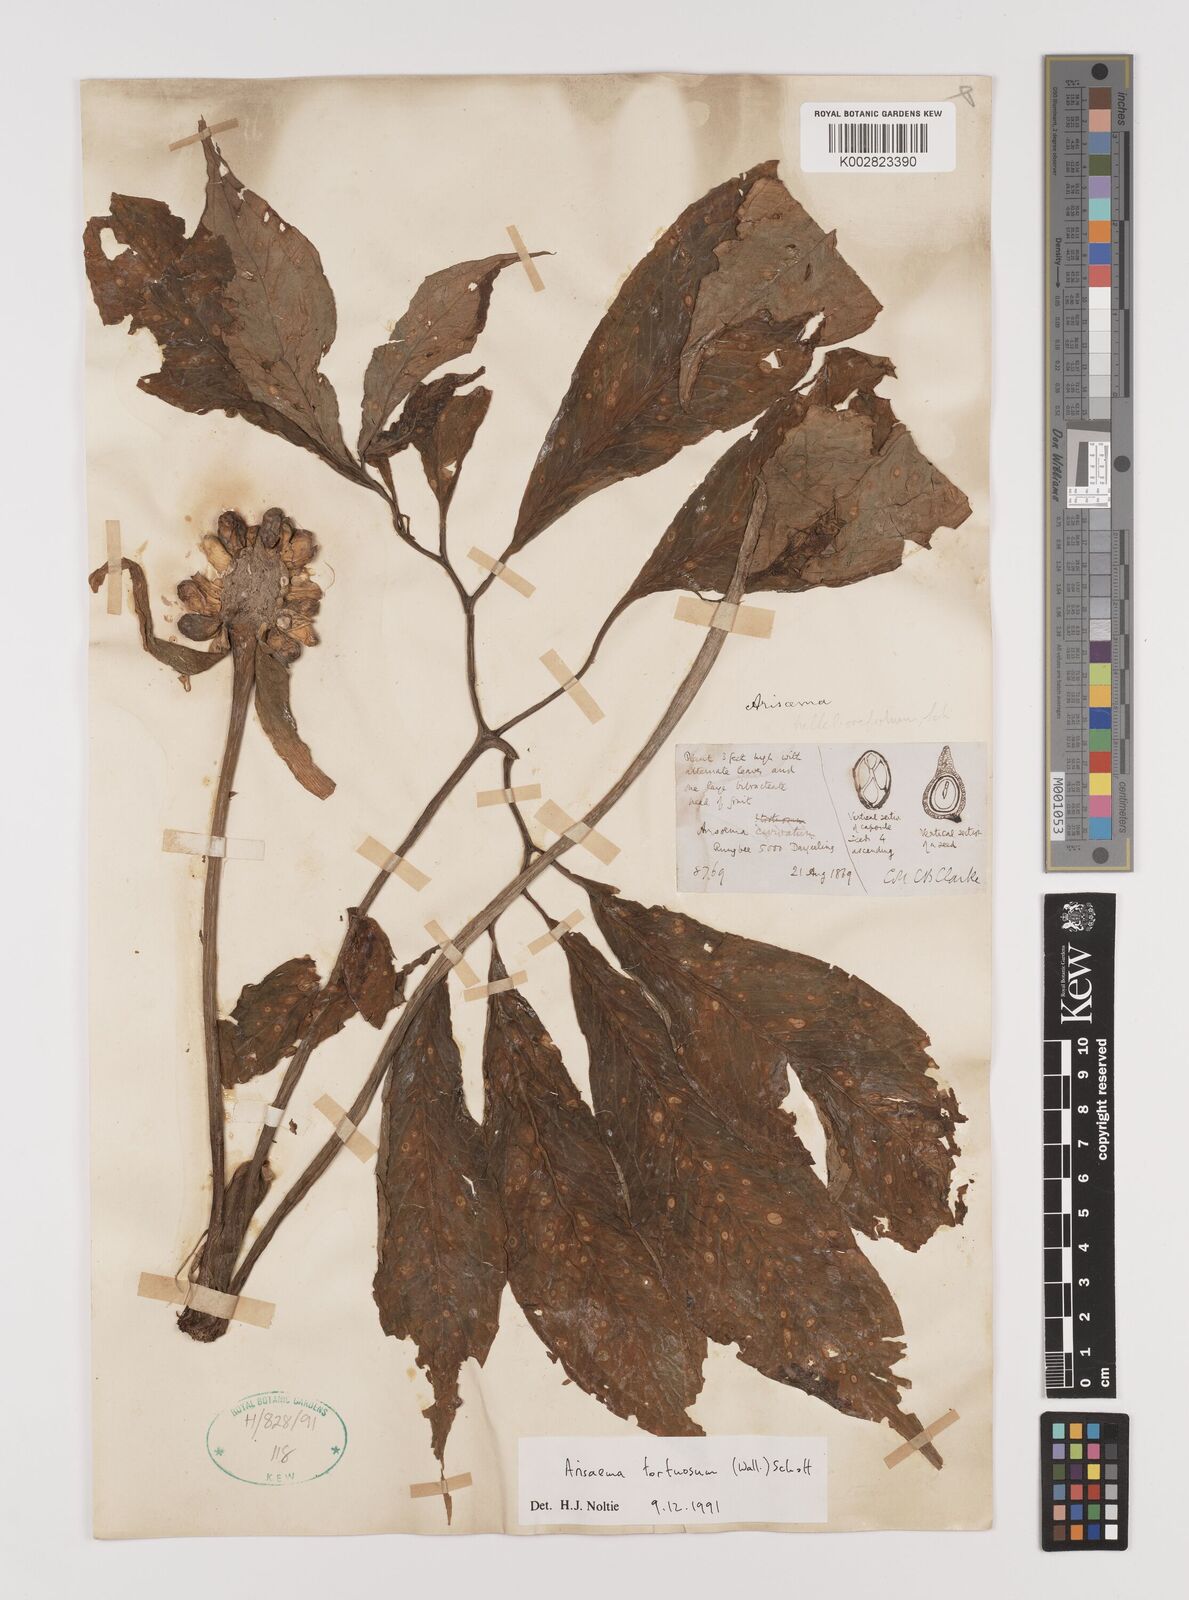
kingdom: Plantae
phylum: Tracheophyta
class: Liliopsida
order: Alismatales
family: Araceae
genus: Arisaema
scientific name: Arisaema tortuosum
